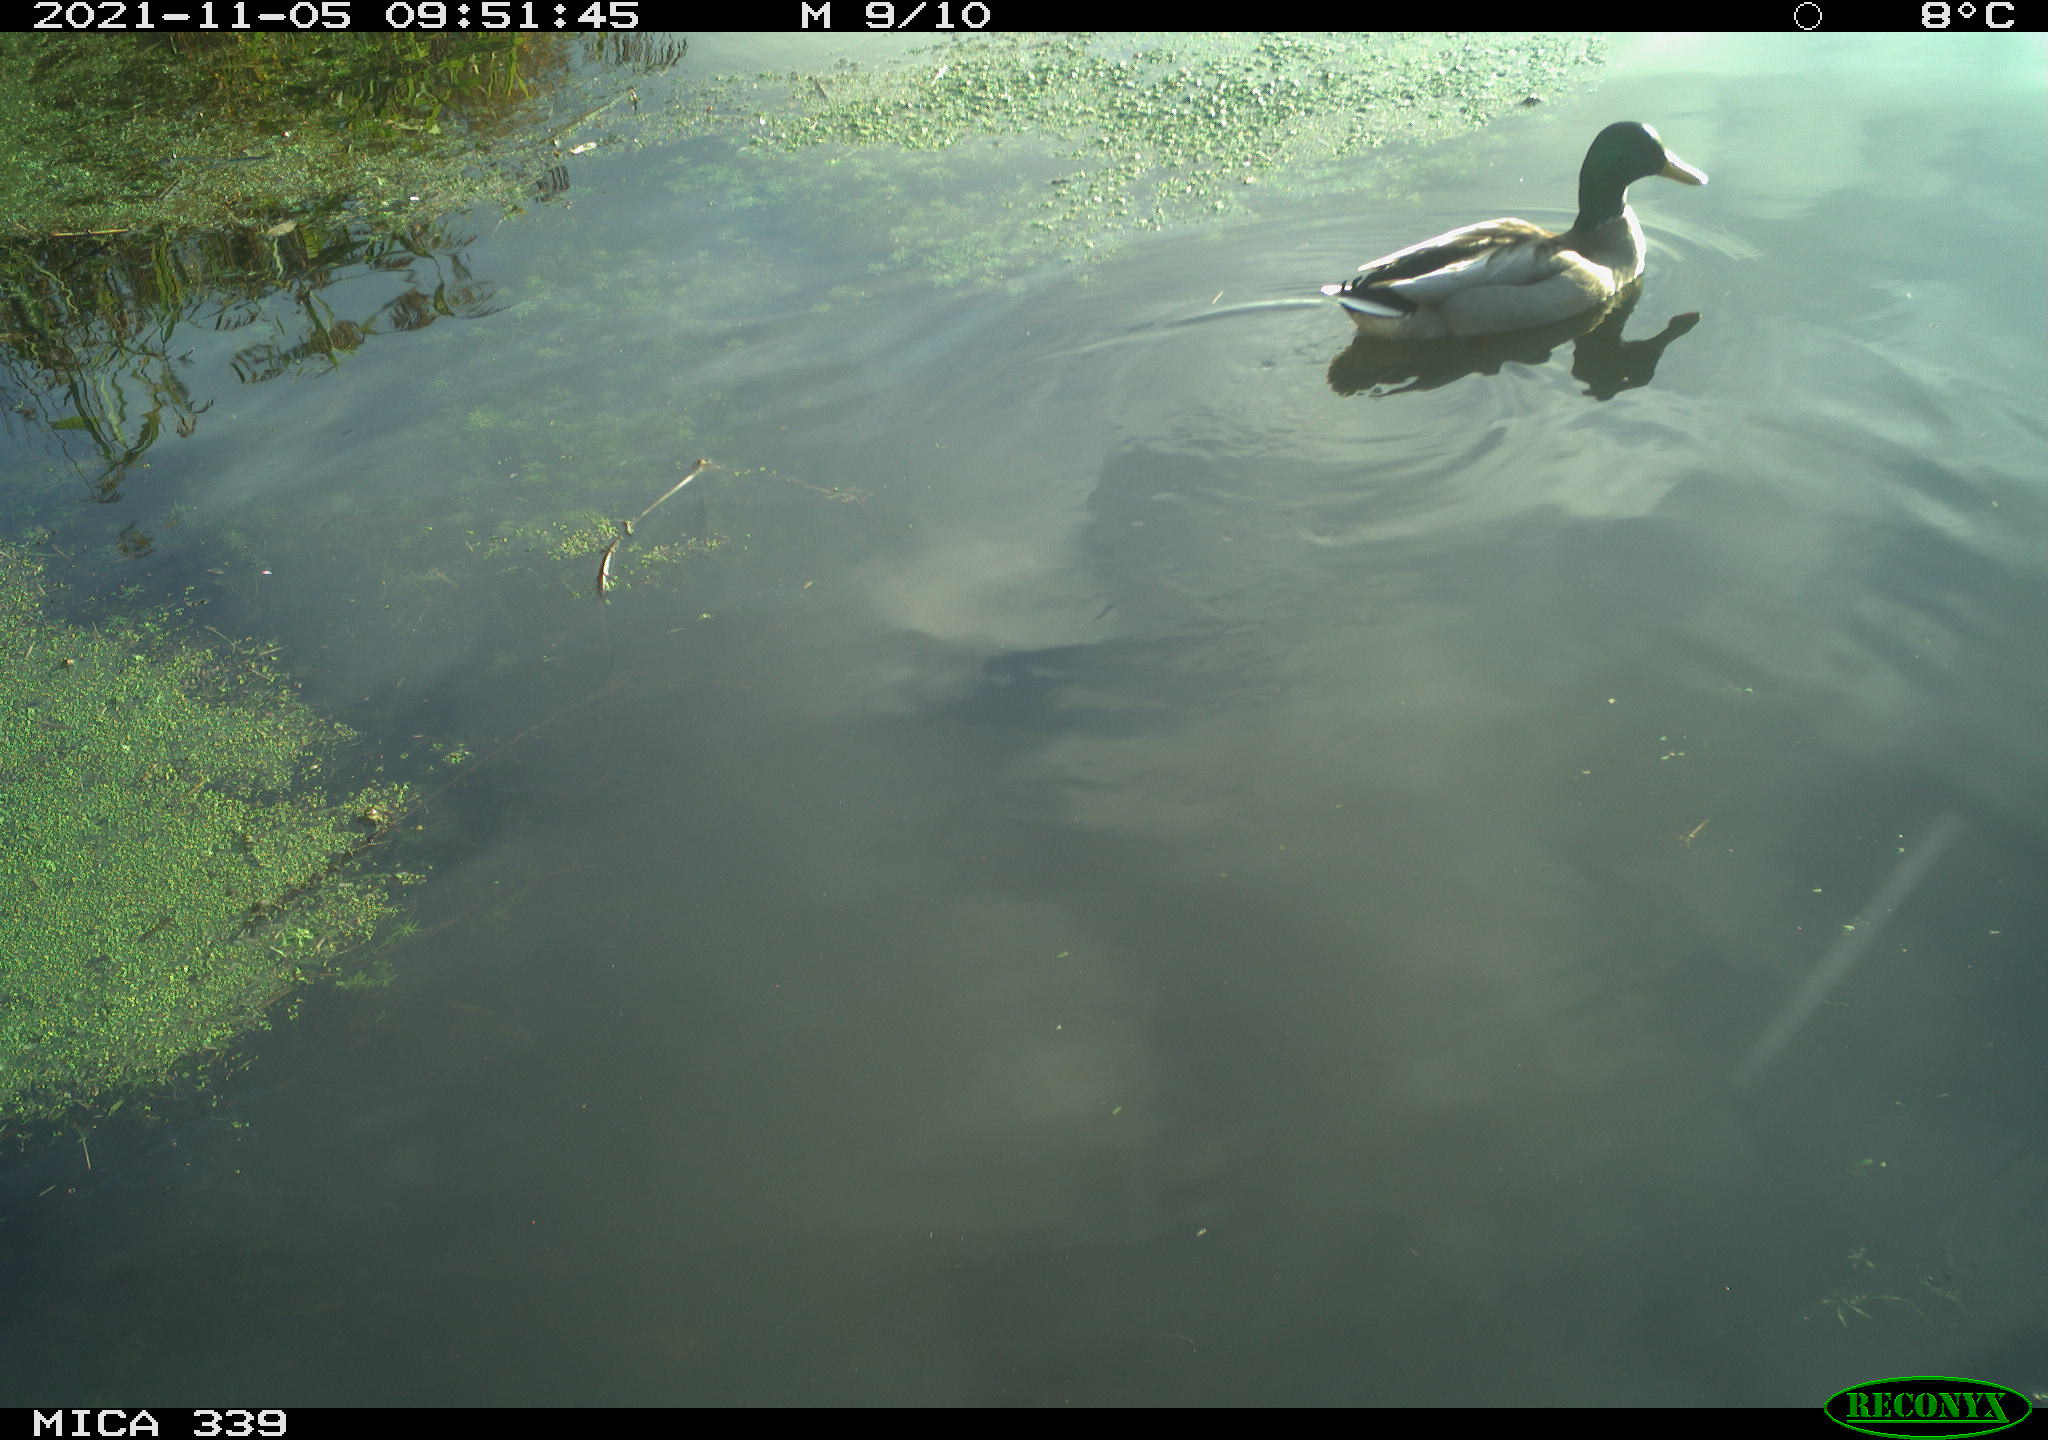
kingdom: Animalia
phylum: Chordata
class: Aves
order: Anseriformes
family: Anatidae
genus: Anas
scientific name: Anas platyrhynchos
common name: Mallard
